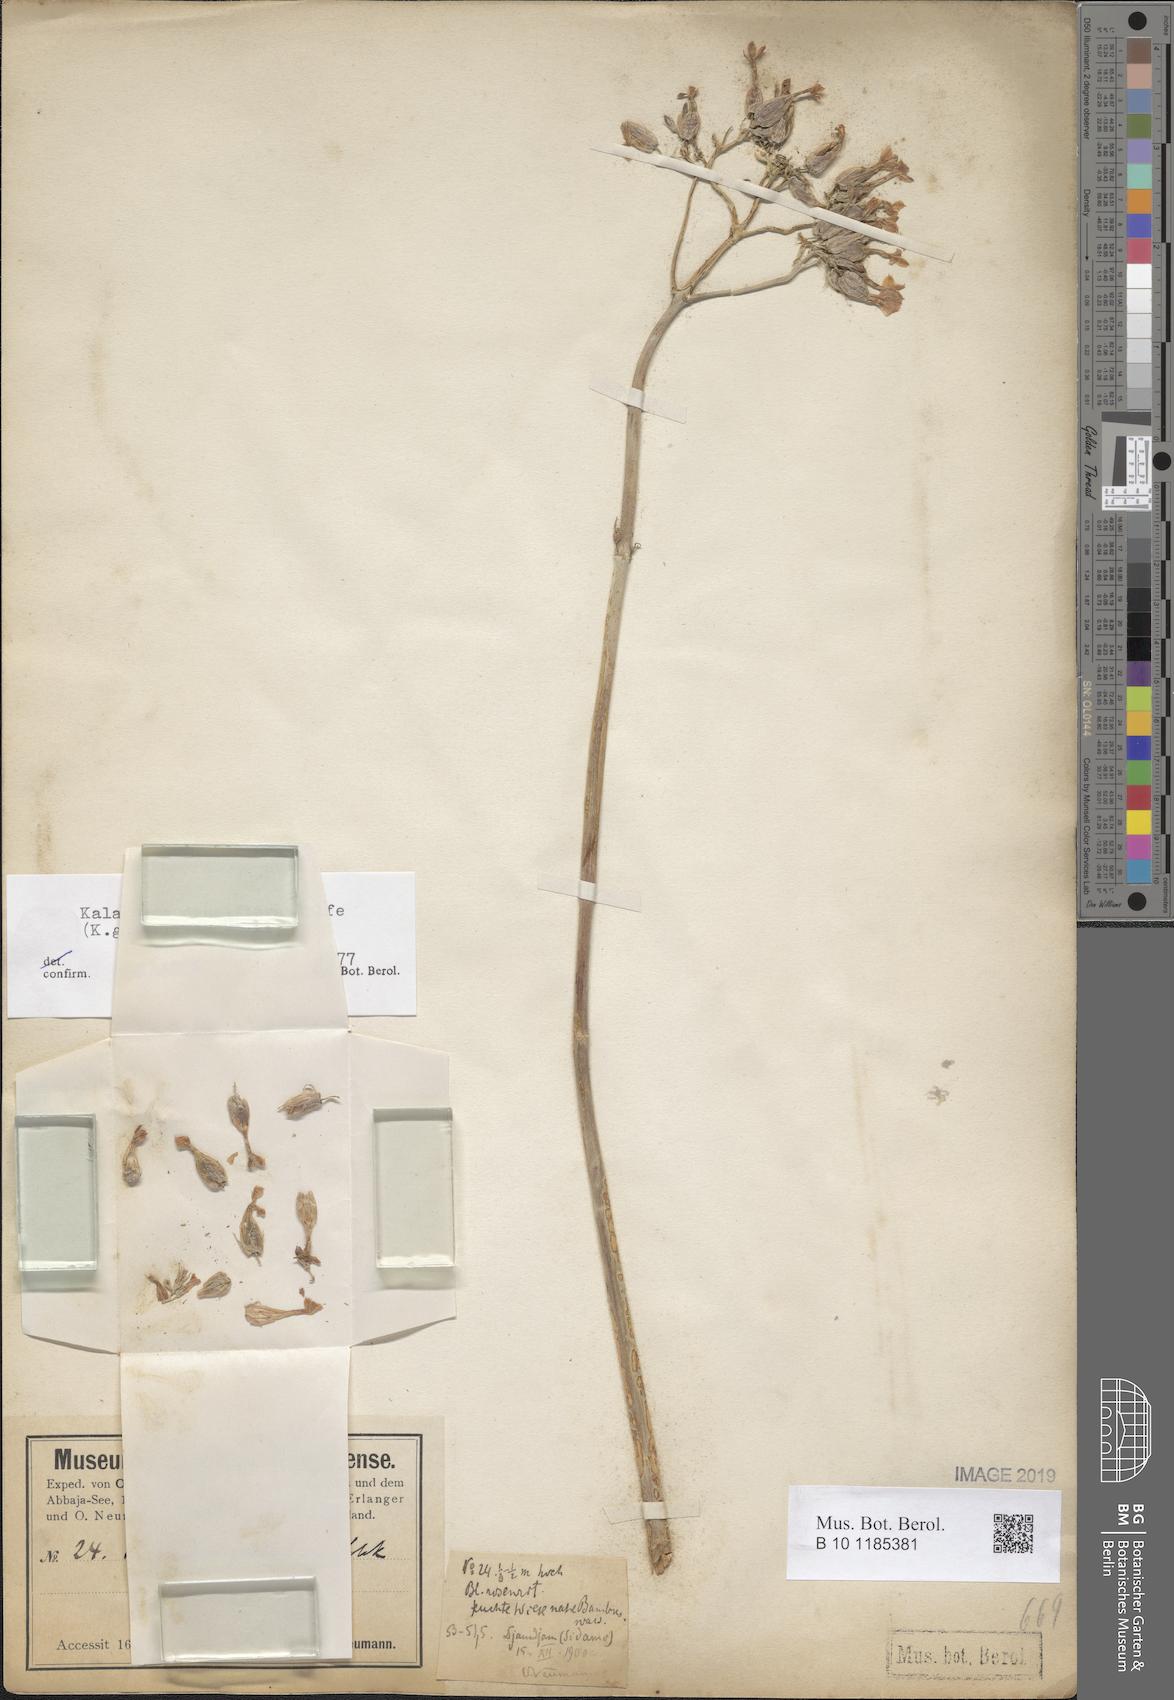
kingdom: Plantae
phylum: Tracheophyta
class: Magnoliopsida
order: Saxifragales
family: Crassulaceae
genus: Kalanchoe
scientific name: Kalanchoe densiflora
